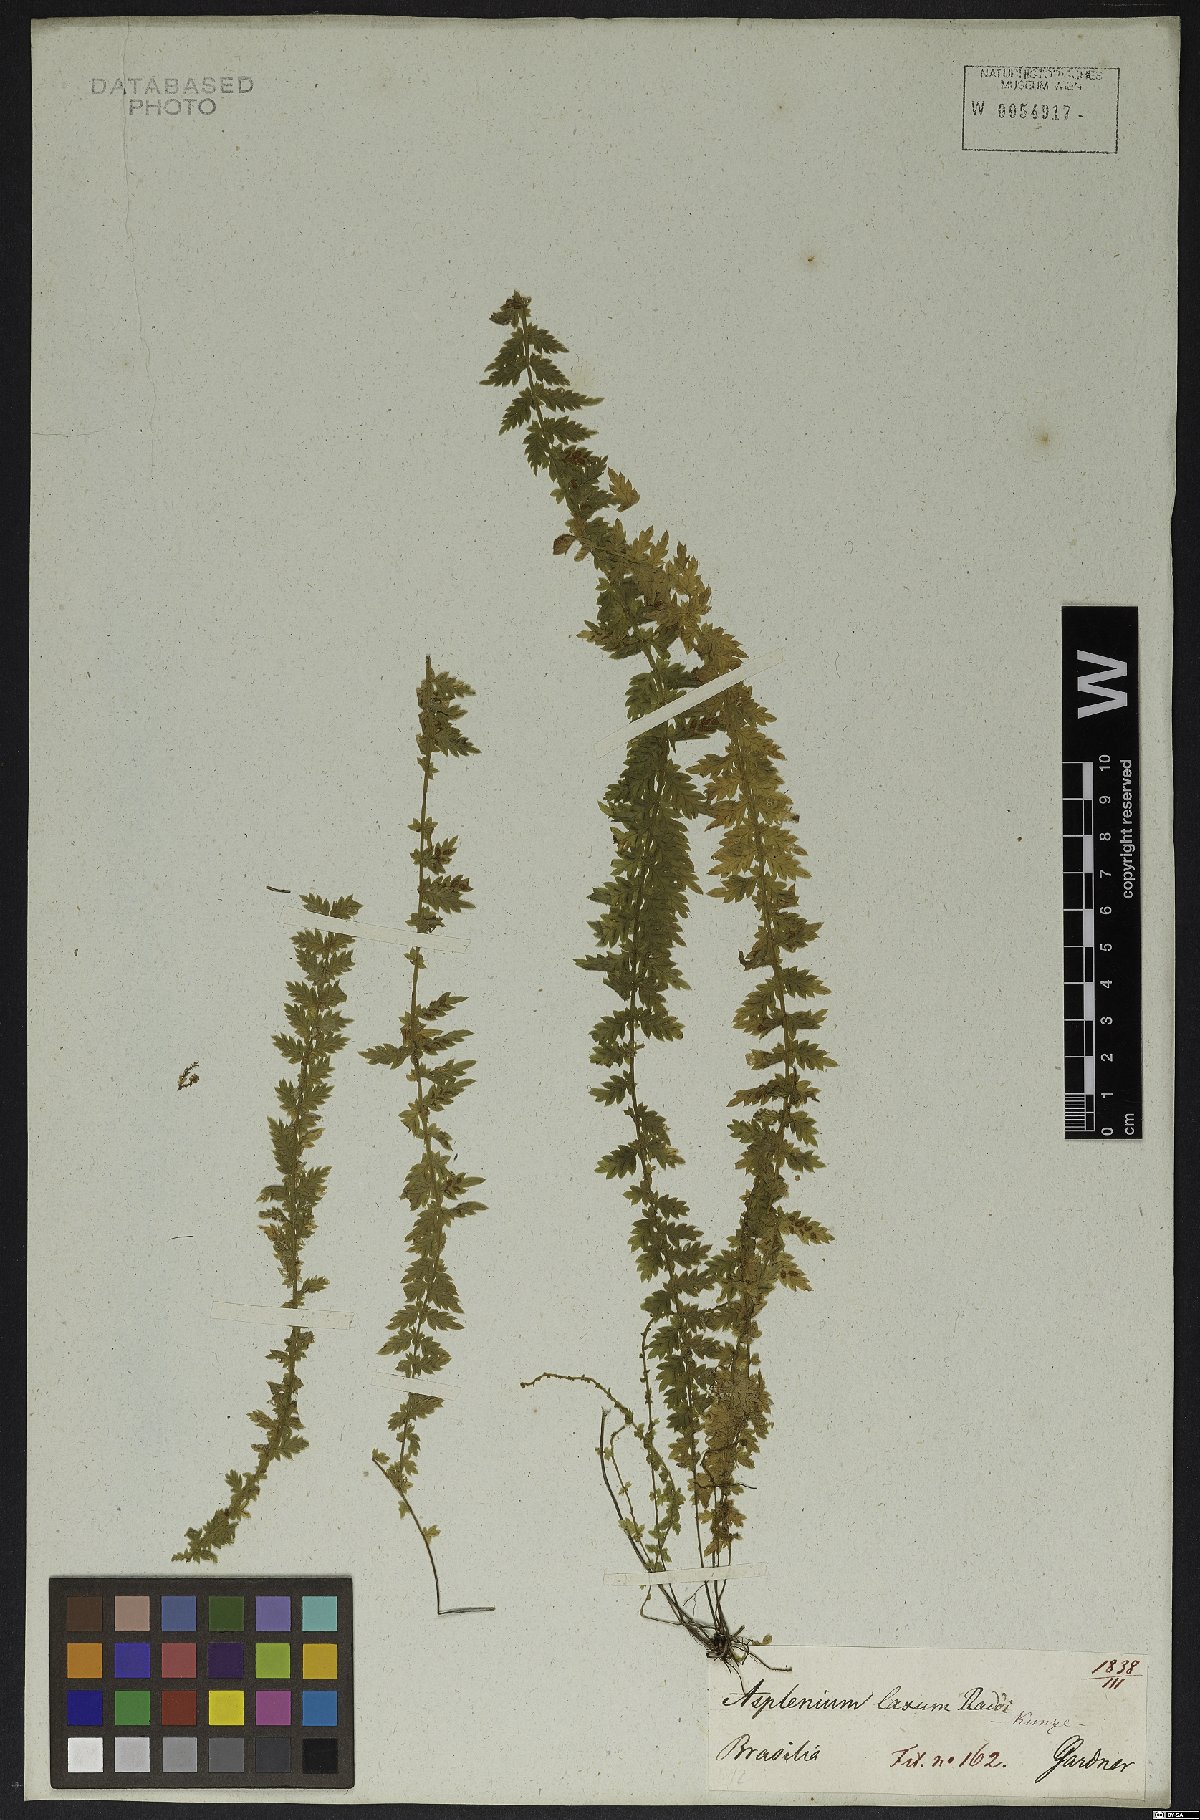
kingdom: Plantae
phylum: Tracheophyta
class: Polypodiopsida
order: Polypodiales
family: Aspleniaceae
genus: Asplenium
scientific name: Asplenium mucronatum
